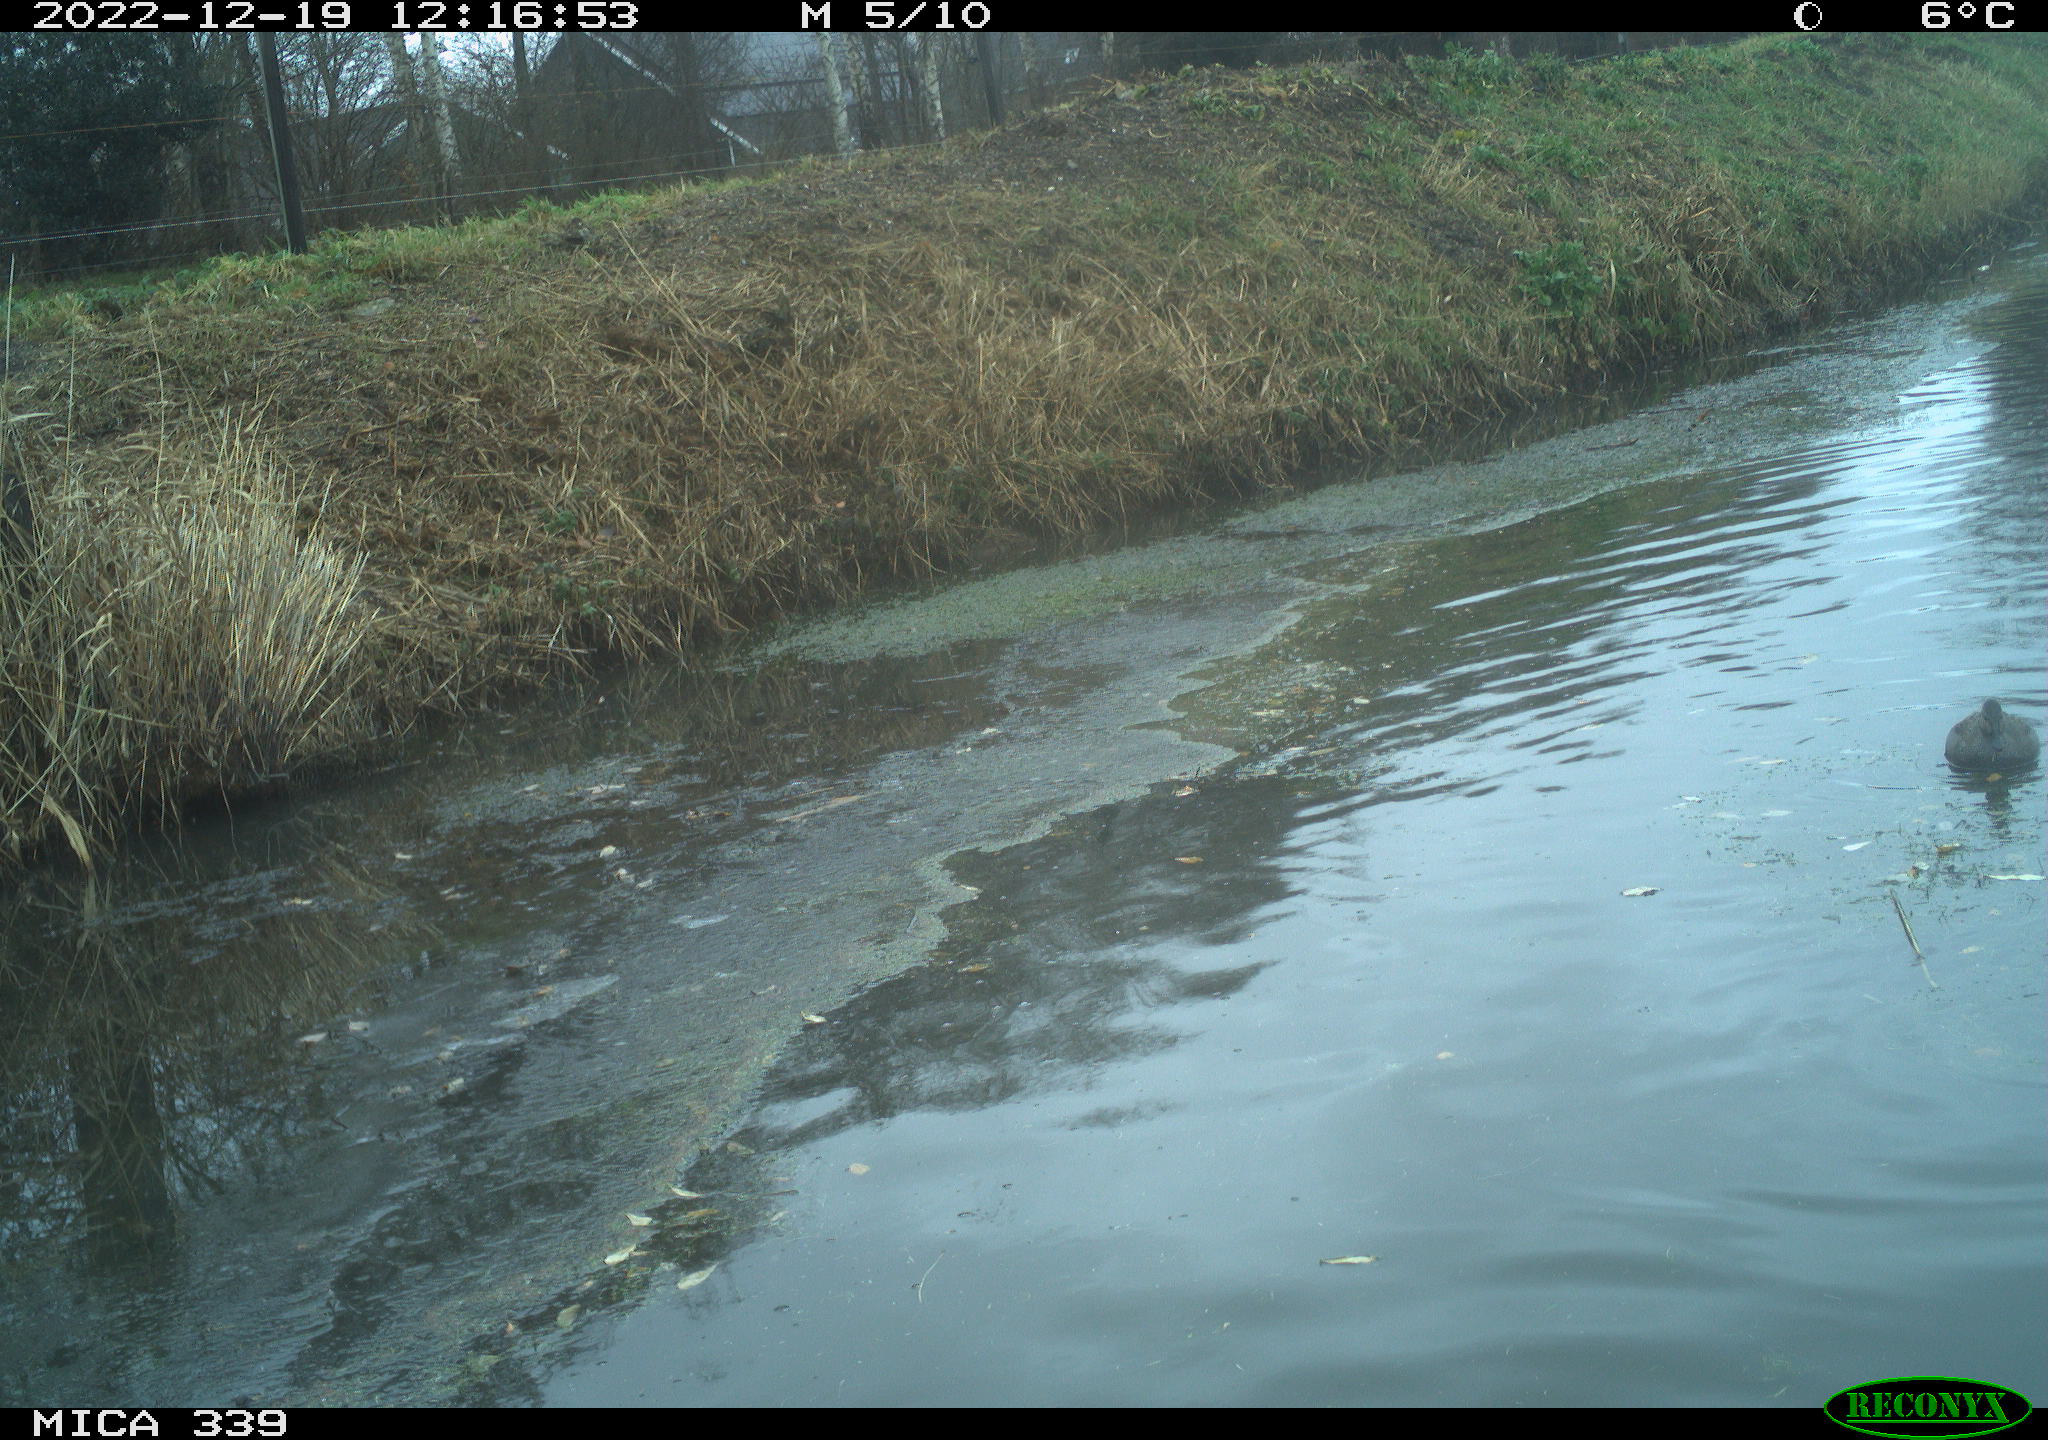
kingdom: Animalia
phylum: Chordata
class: Aves
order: Anseriformes
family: Anatidae
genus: Anas
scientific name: Anas
